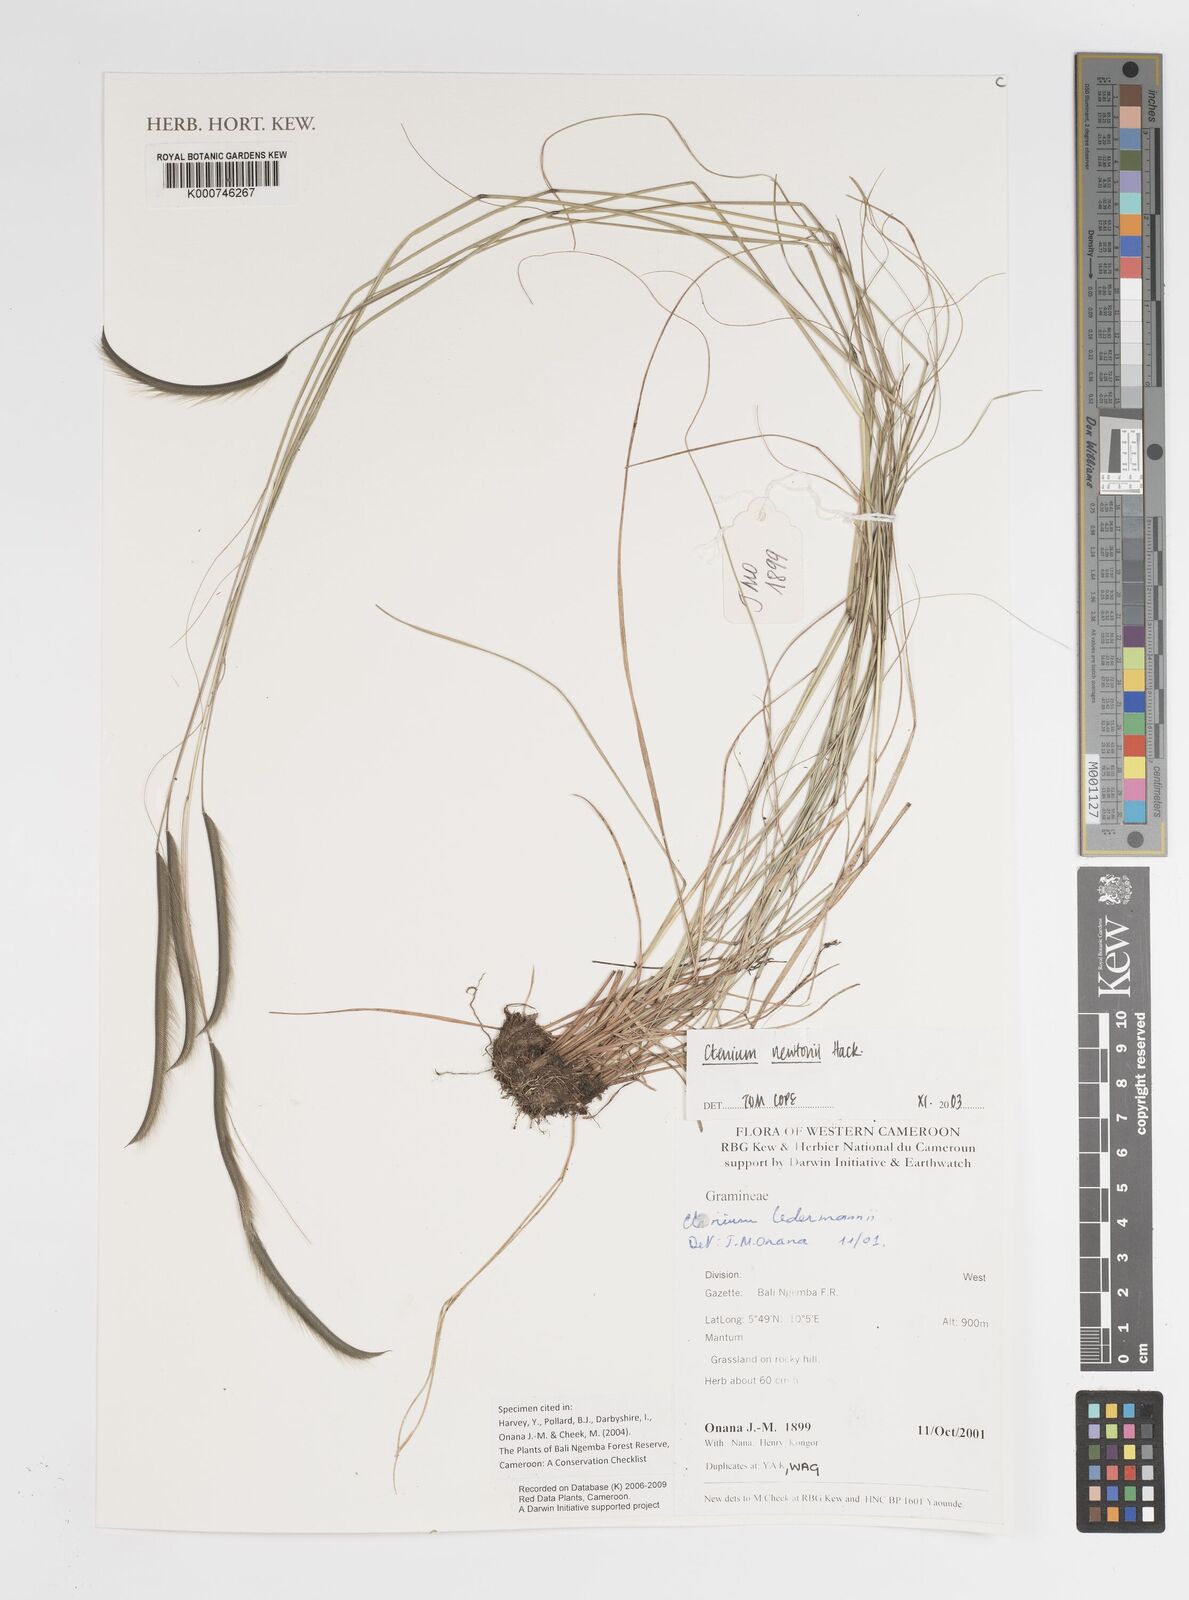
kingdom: Plantae
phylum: Tracheophyta
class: Liliopsida
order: Poales
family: Poaceae
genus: Ctenium
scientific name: Ctenium newtonii
